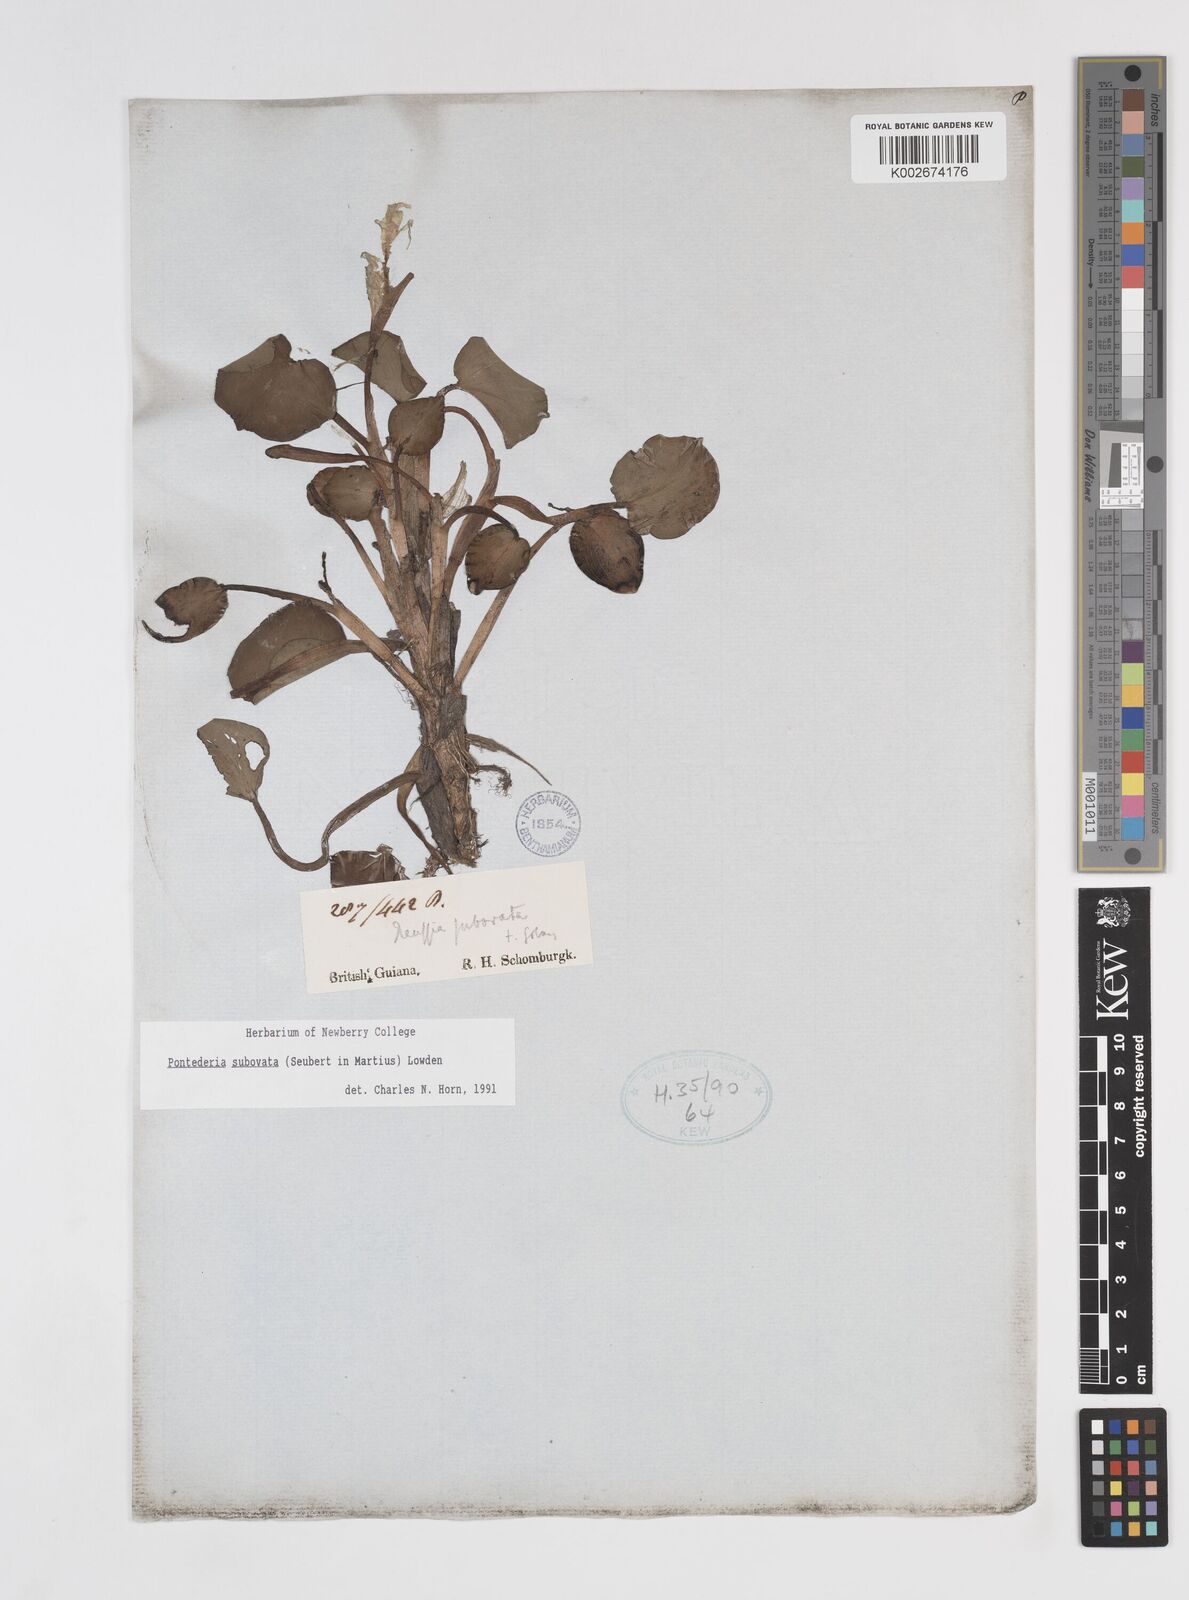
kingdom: Plantae
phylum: Tracheophyta
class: Liliopsida
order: Commelinales
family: Pontederiaceae
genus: Pontederia
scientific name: Pontederia subovata
